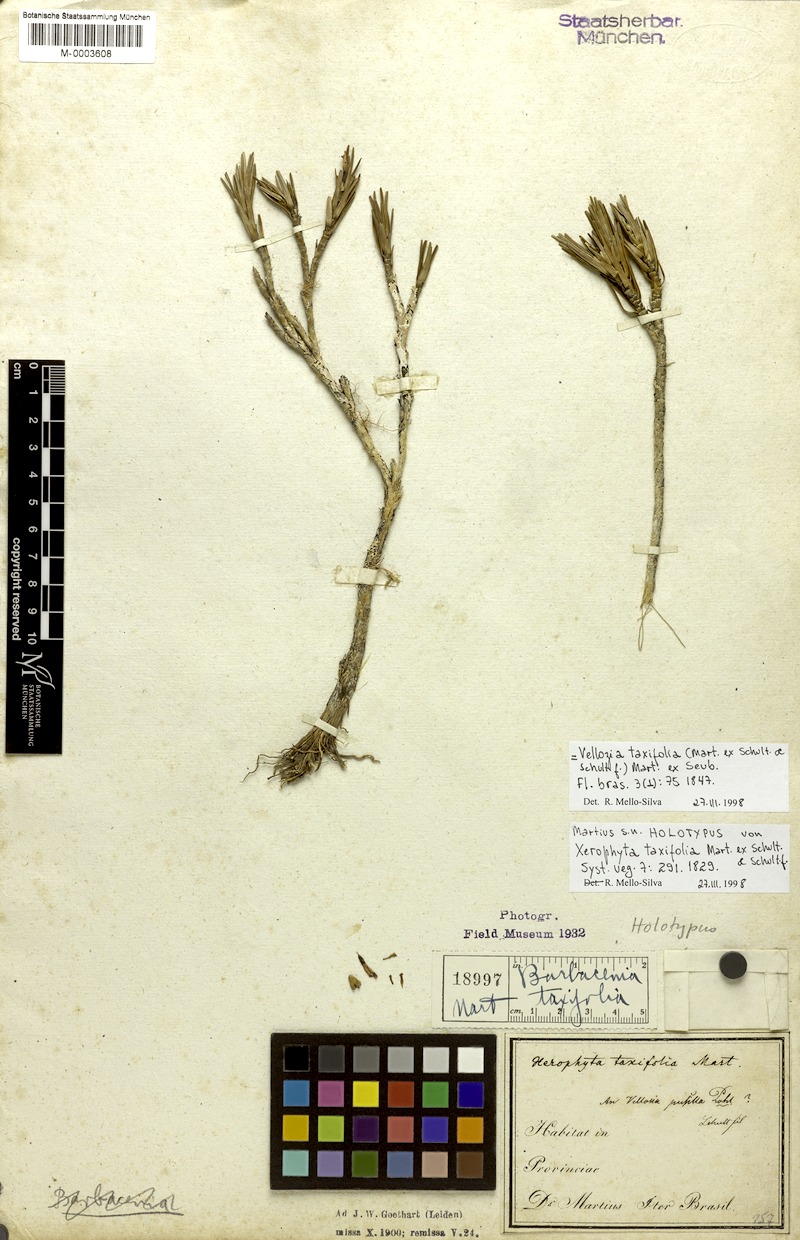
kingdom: Plantae
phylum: Tracheophyta
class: Liliopsida
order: Pandanales
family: Velloziaceae
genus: Vellozia
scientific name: Vellozia taxifolia
